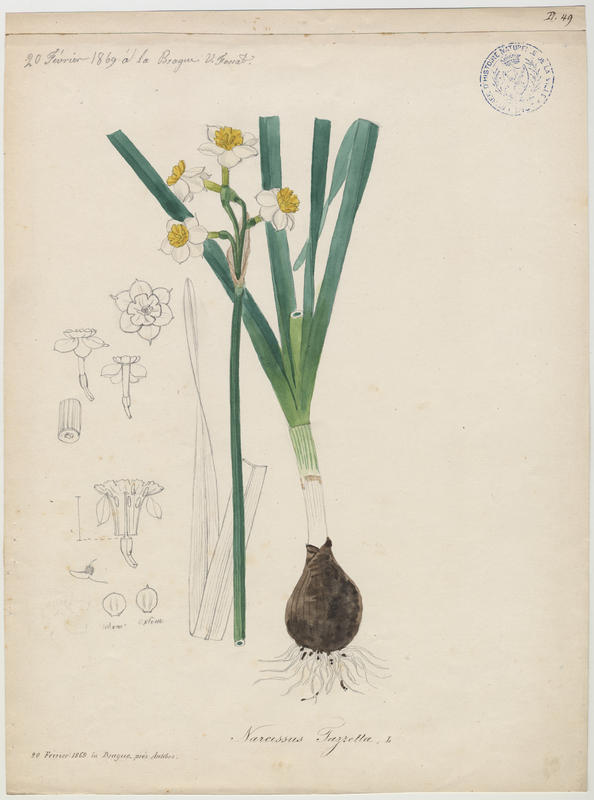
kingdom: Plantae
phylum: Tracheophyta
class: Liliopsida
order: Asparagales
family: Amaryllidaceae
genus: Narcissus
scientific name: Narcissus tazetta
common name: Bunch-flowered daffodil
